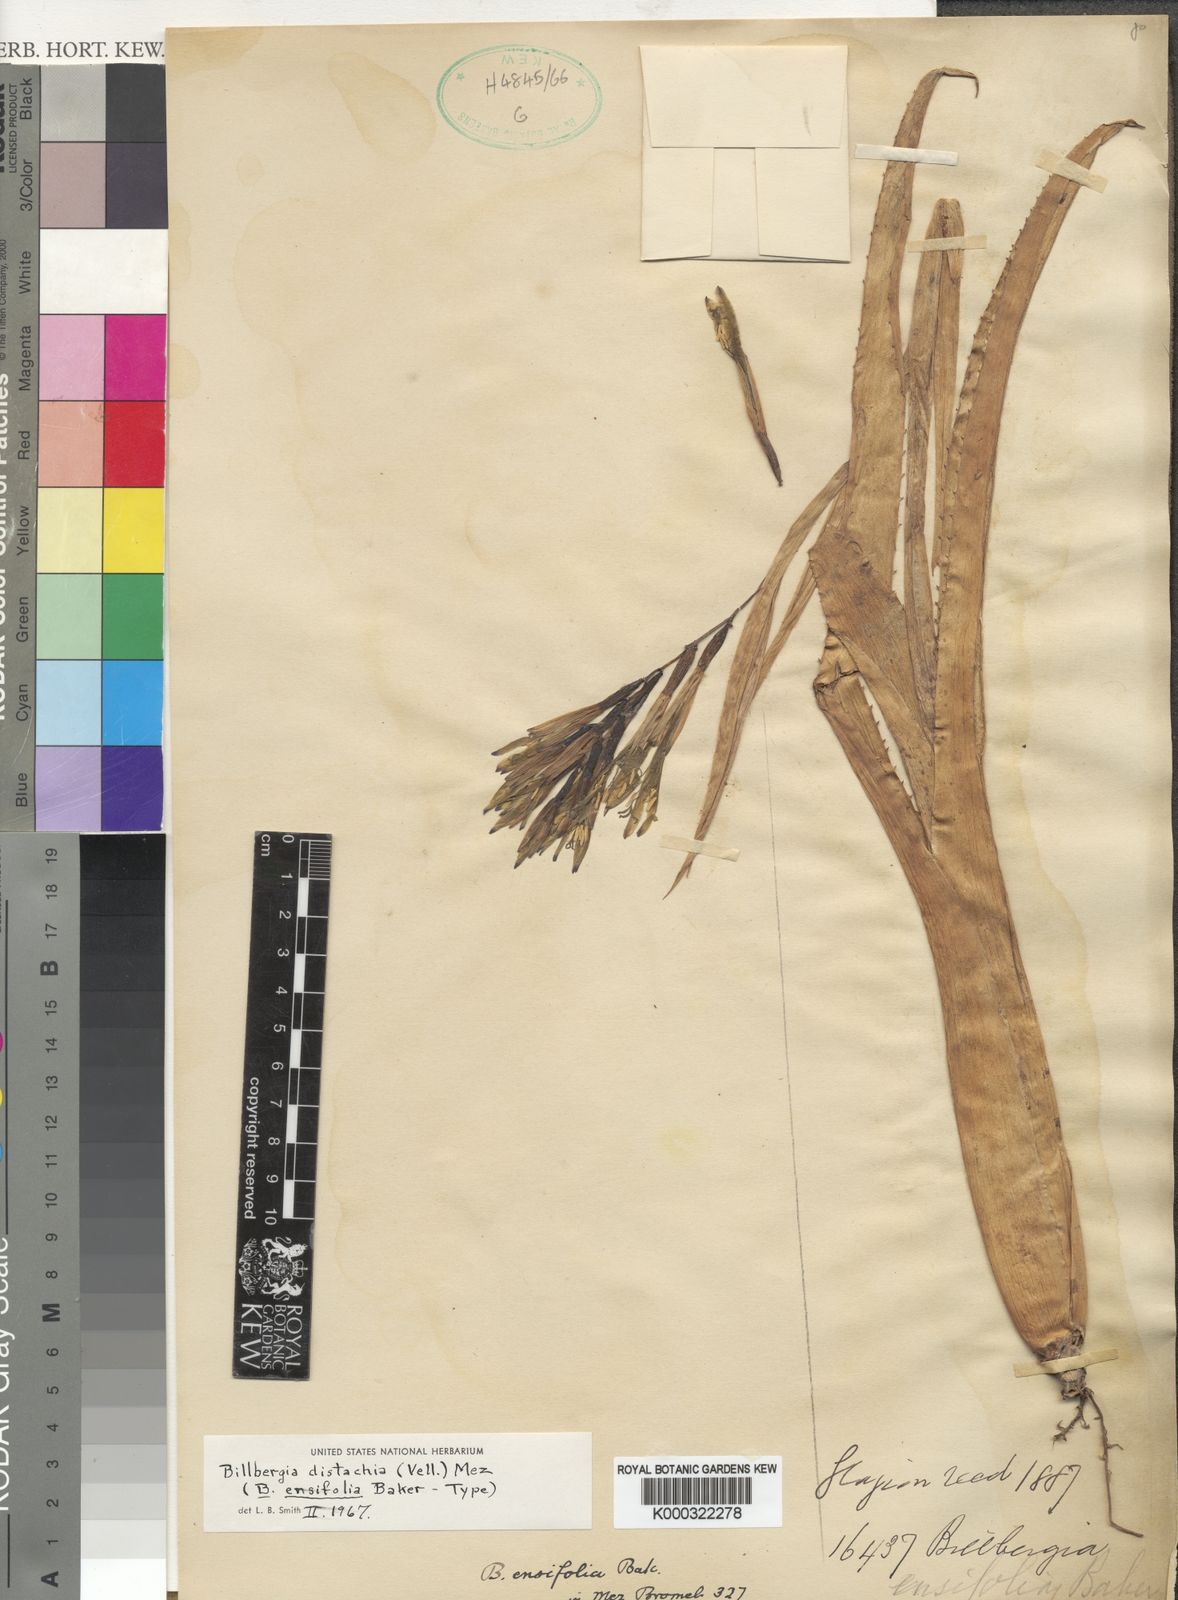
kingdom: Plantae
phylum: Tracheophyta
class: Liliopsida
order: Poales
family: Bromeliaceae
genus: Billbergia
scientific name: Billbergia distachia
